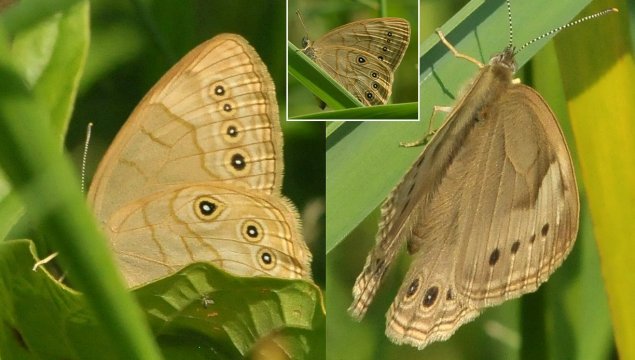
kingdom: Animalia
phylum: Arthropoda
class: Insecta
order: Lepidoptera
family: Nymphalidae
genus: Lethe
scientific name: Lethe eurydice
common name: Appalachian Eyed Brown
